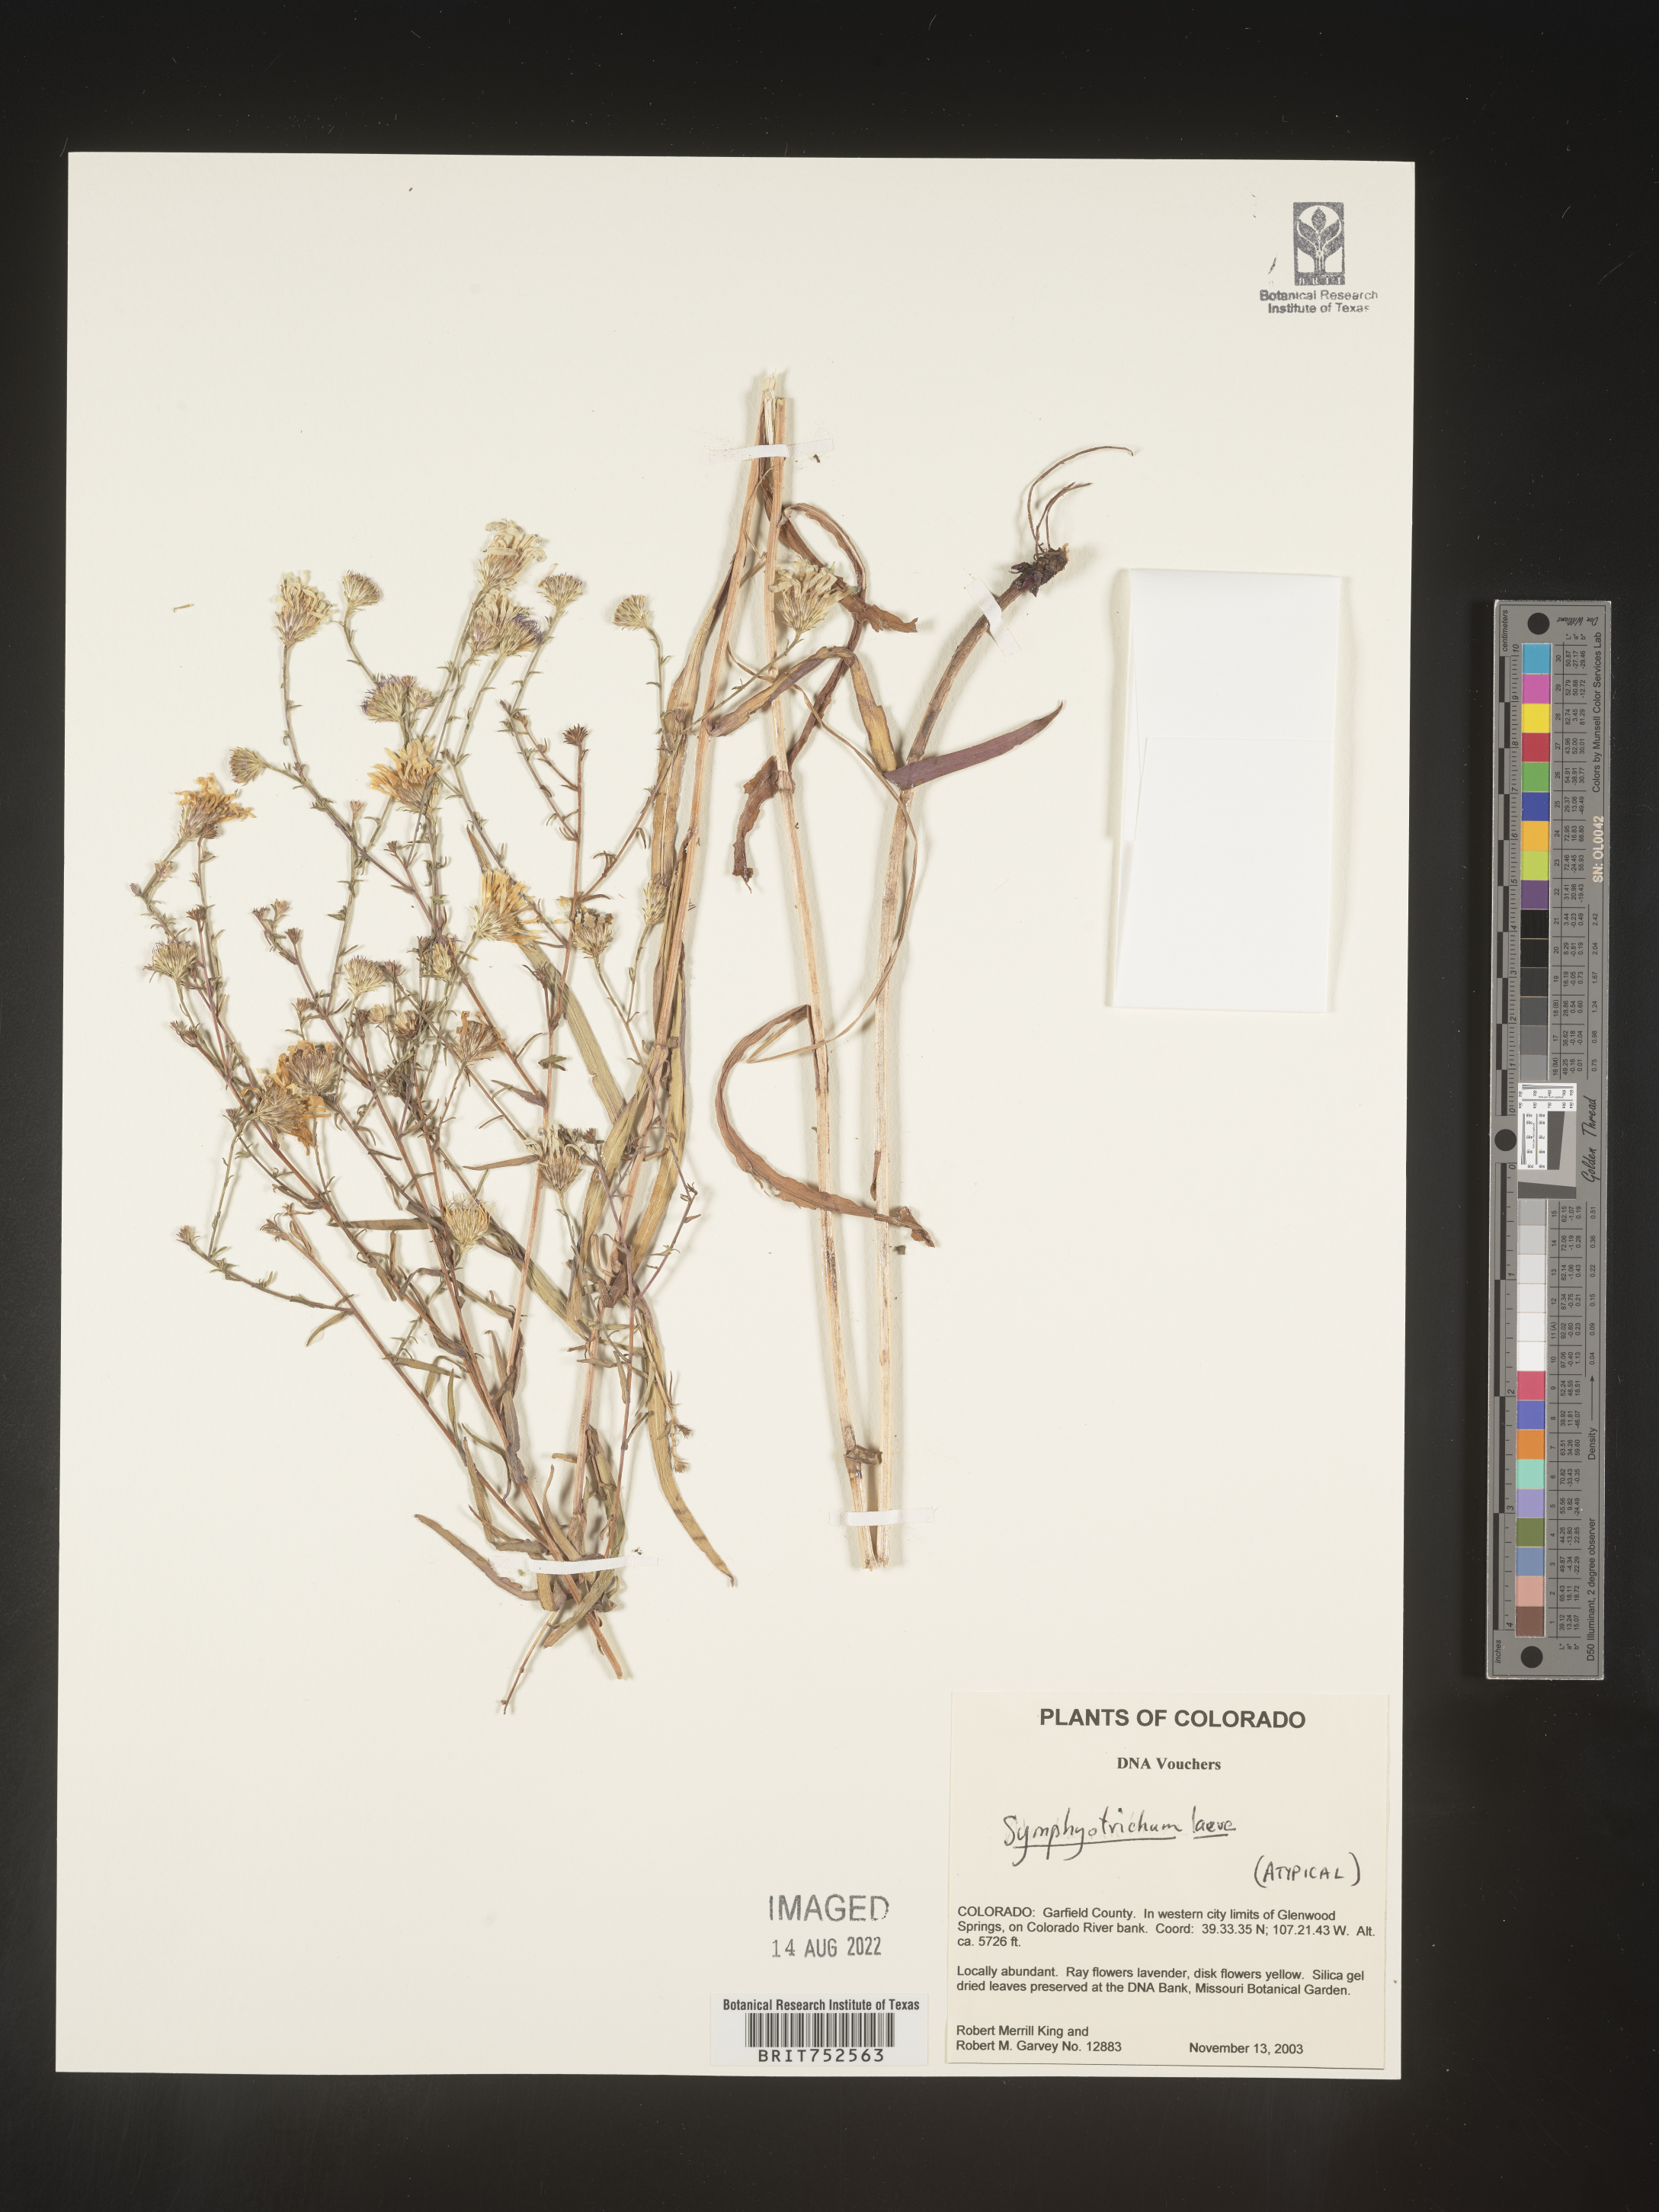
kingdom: Plantae
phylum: Tracheophyta
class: Magnoliopsida
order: Asterales
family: Asteraceae
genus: Symphyotrichum
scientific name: Symphyotrichum laeve
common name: Glaucous aster
